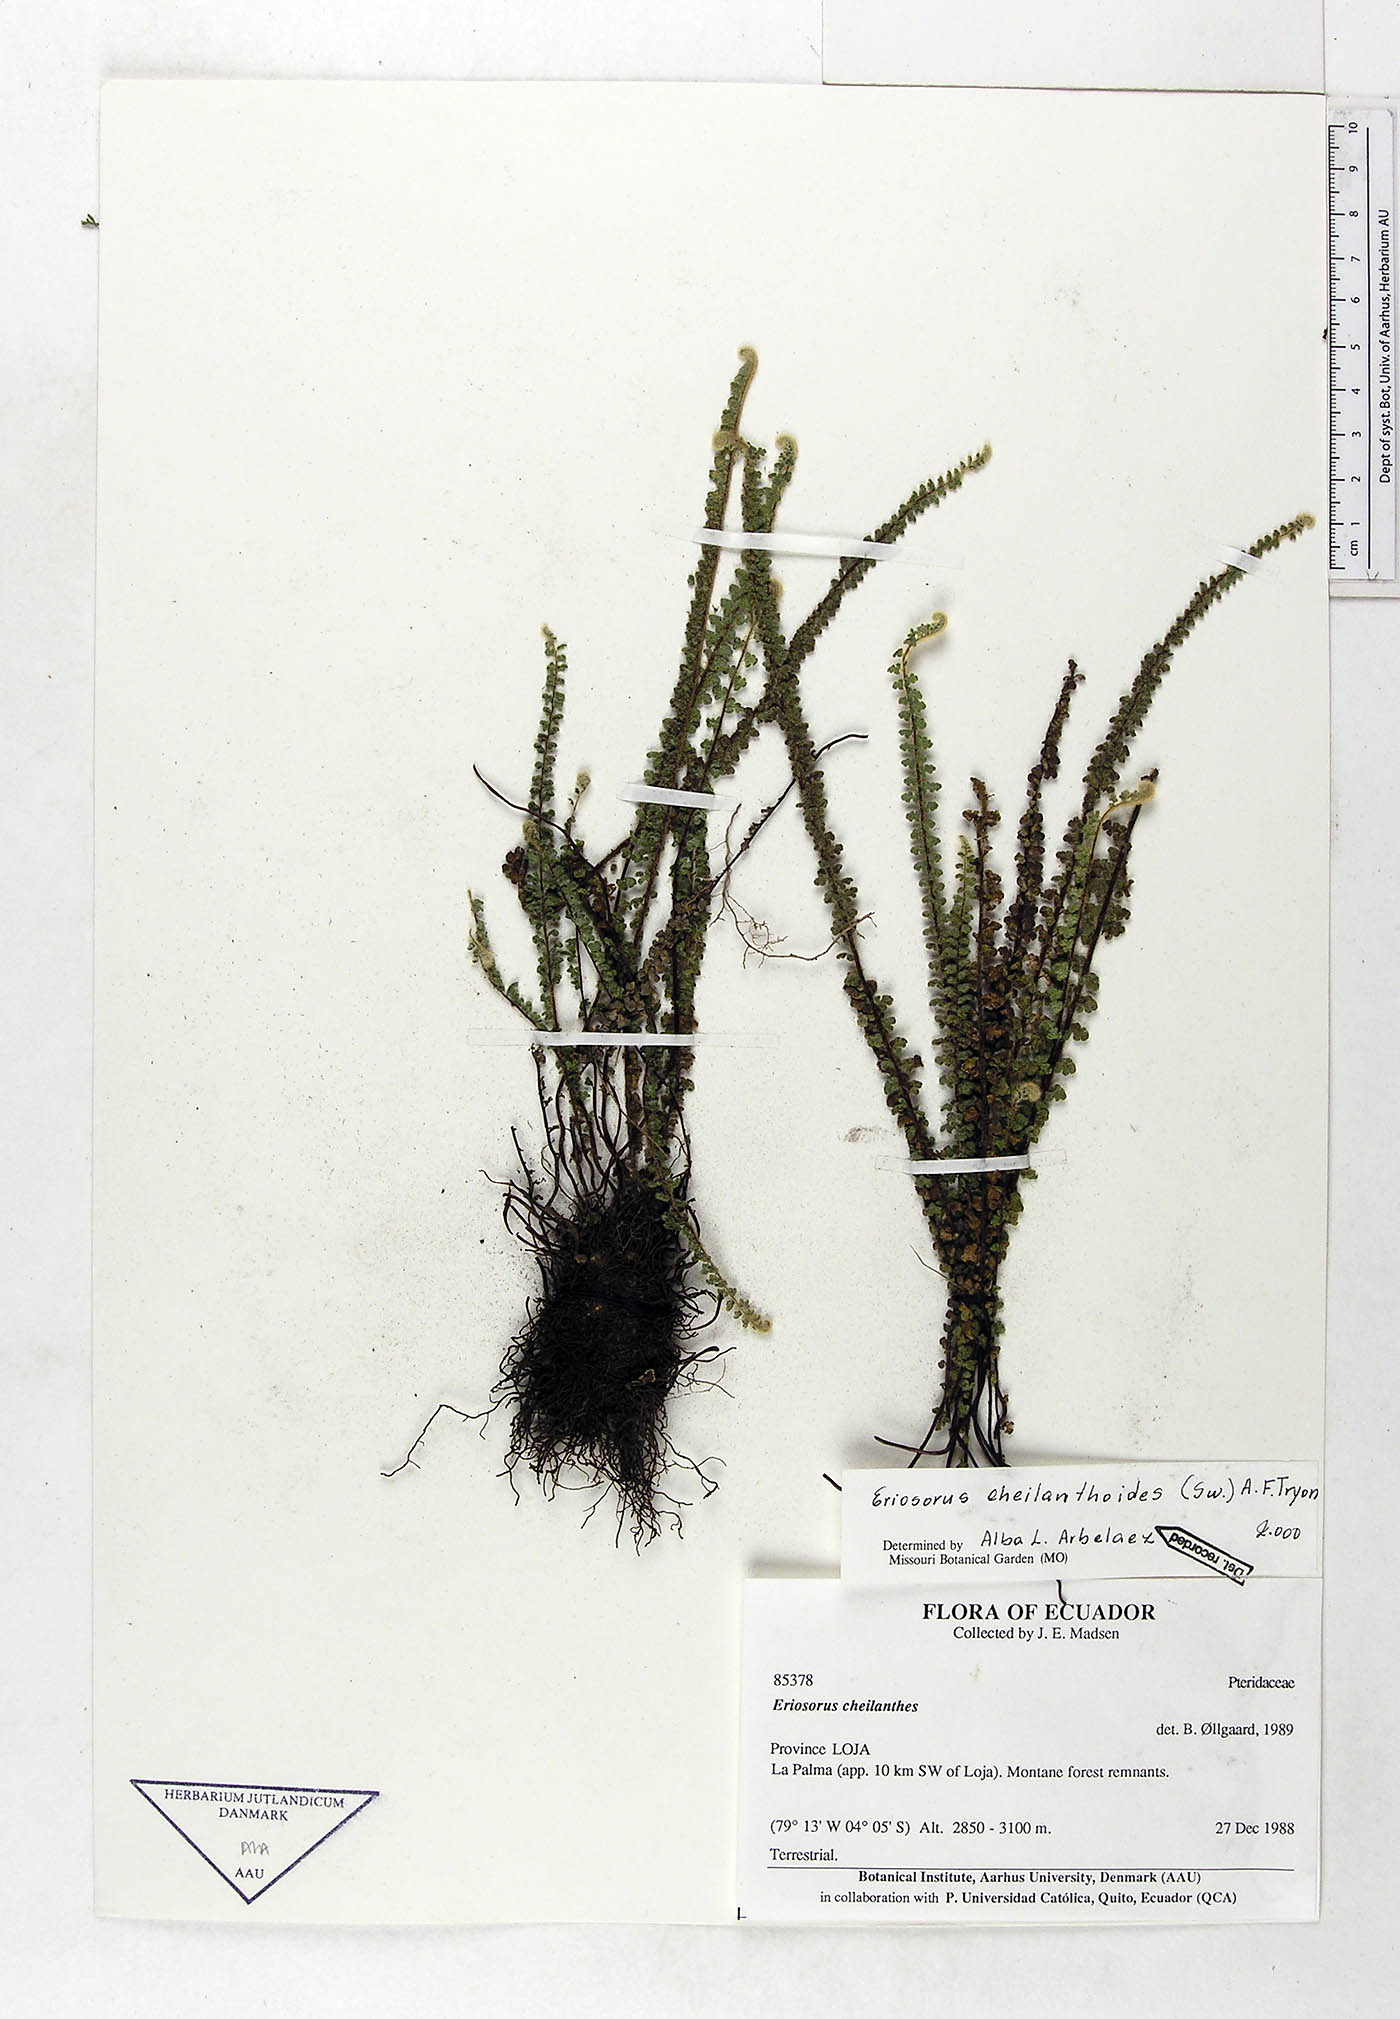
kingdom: Plantae
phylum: Tracheophyta
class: Polypodiopsida
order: Polypodiales
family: Pteridaceae
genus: Jamesonia
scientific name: Jamesonia cheilanthoides
